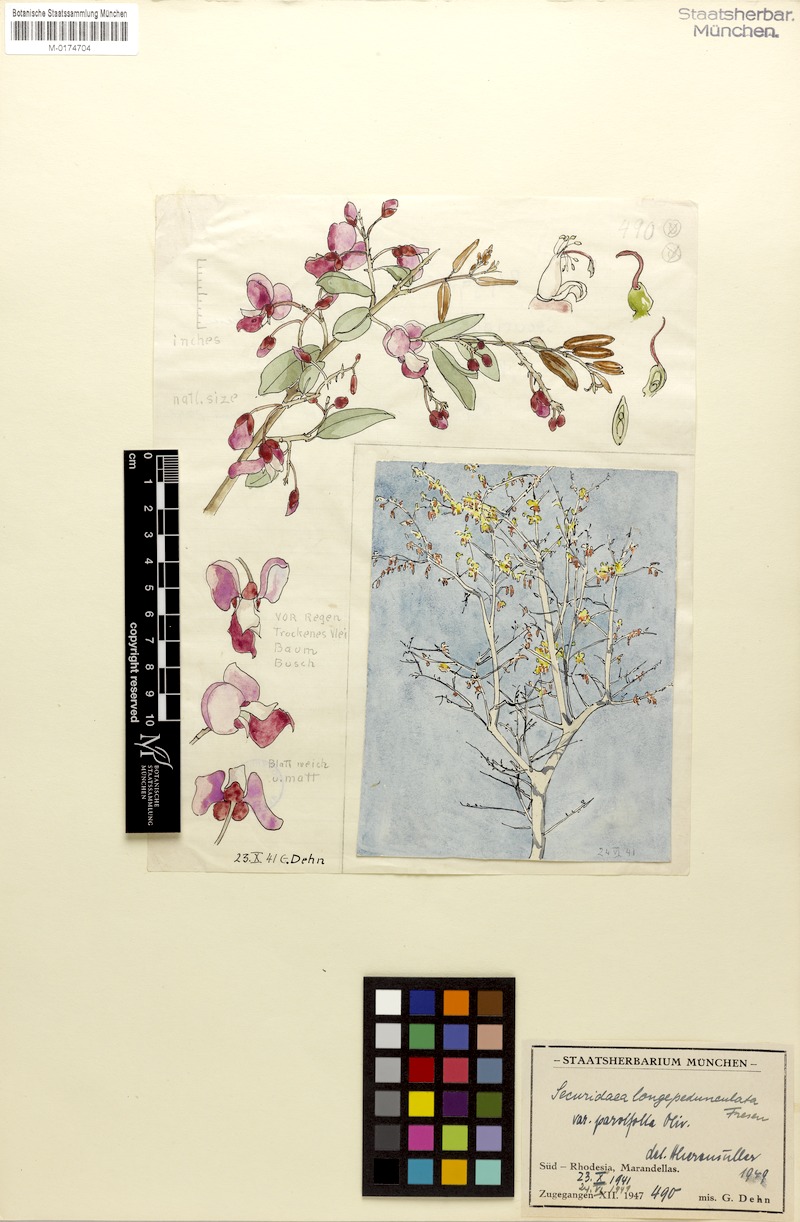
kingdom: Plantae
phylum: Tracheophyta
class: Magnoliopsida
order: Fabales
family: Polygalaceae
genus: Securidaca
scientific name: Securidaca longipedunculata
